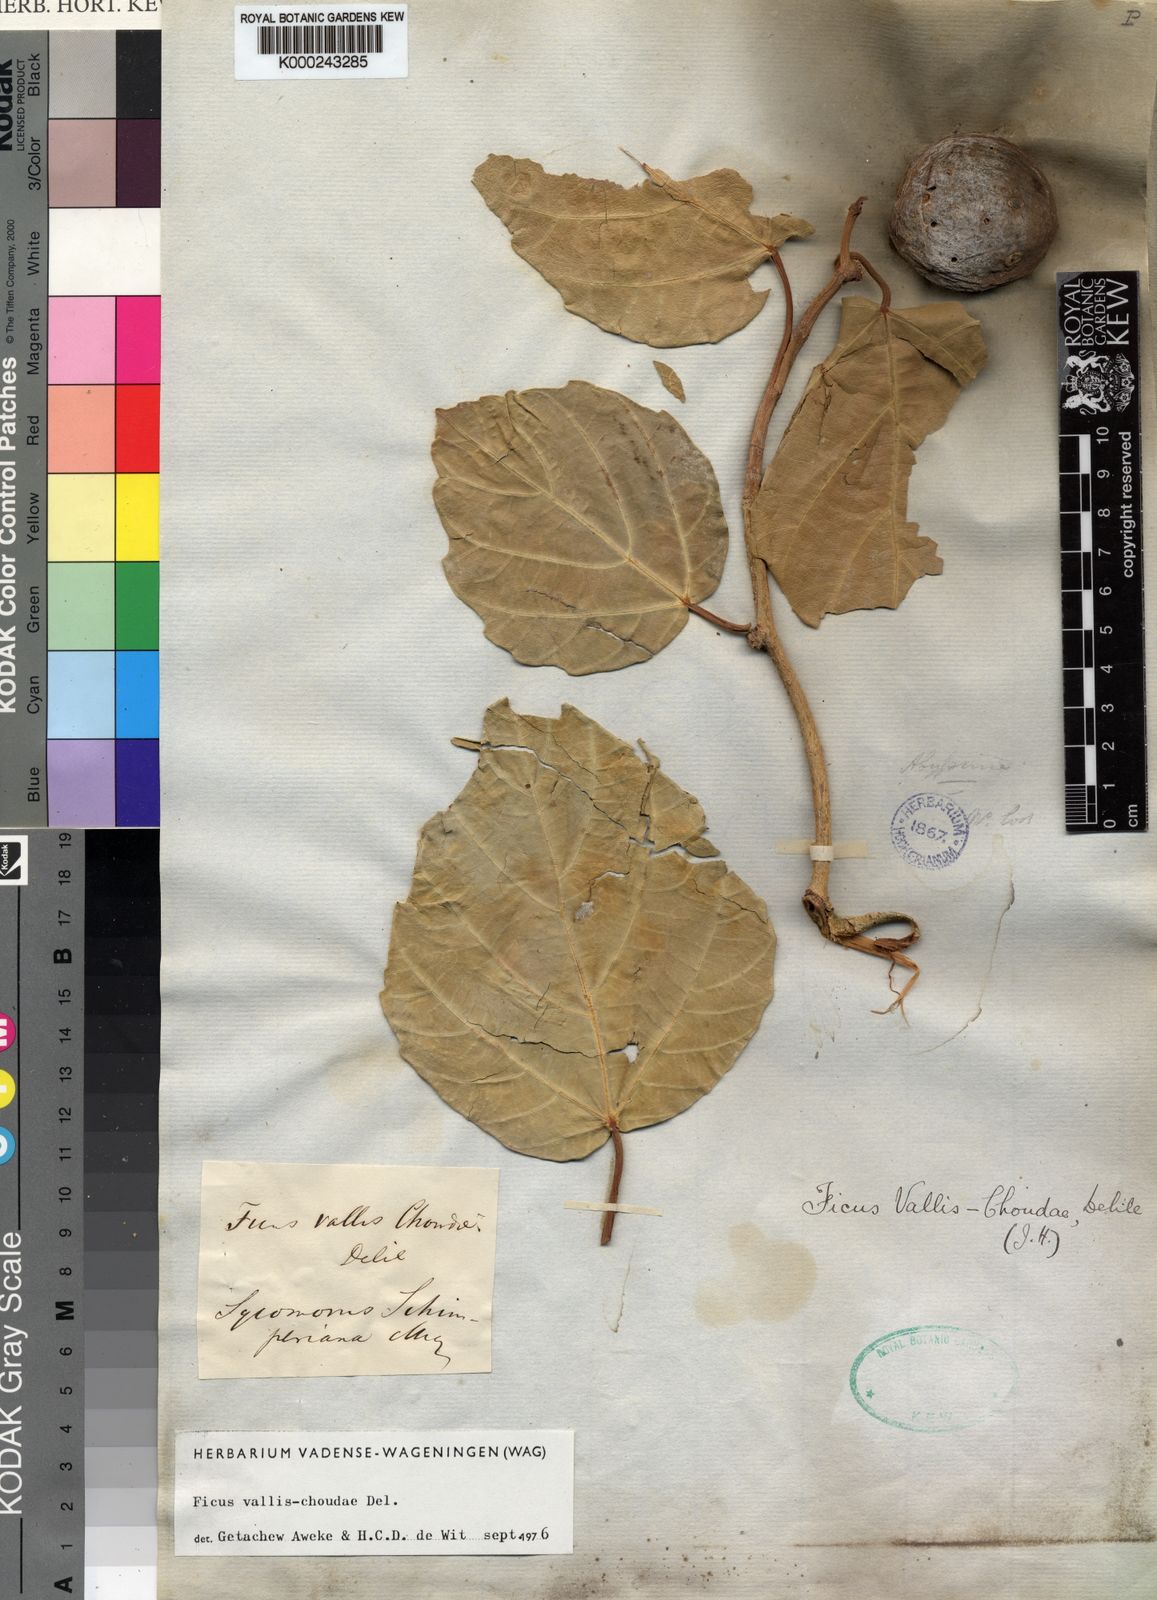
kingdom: Plantae
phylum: Tracheophyta
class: Magnoliopsida
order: Rosales
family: Moraceae
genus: Ficus
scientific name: Ficus vallis-choudae
